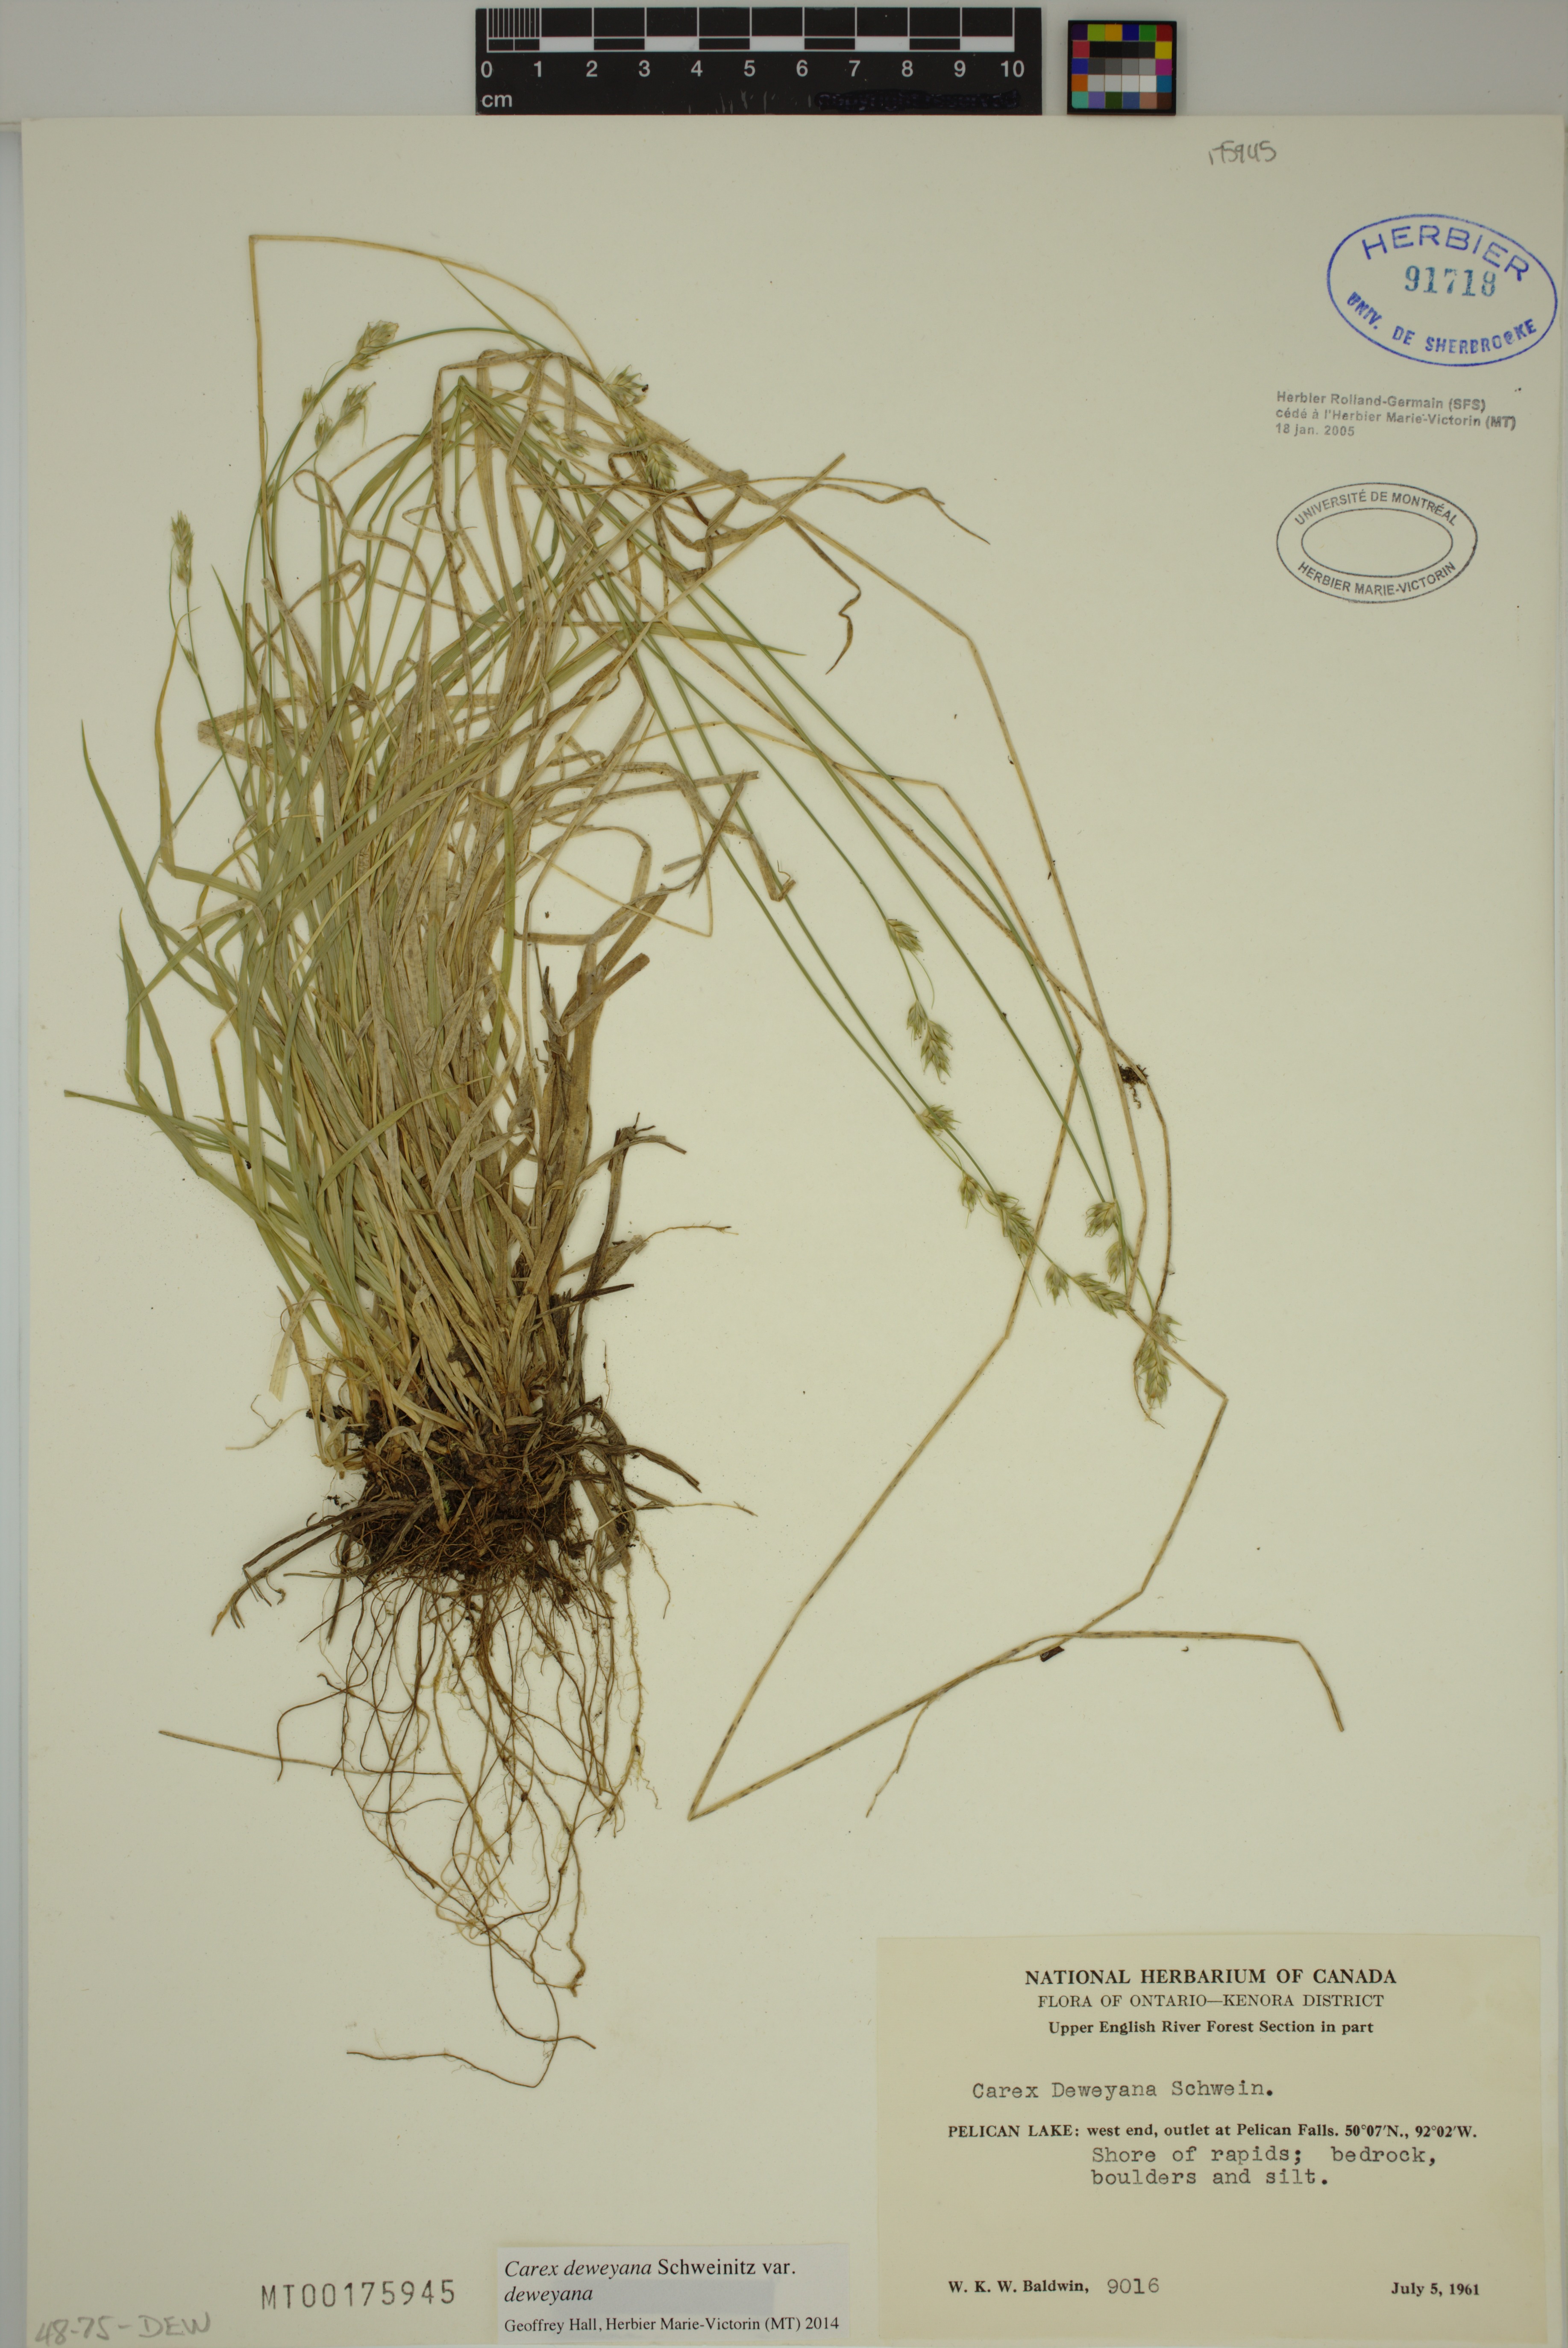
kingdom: Plantae
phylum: Tracheophyta
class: Liliopsida
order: Poales
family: Cyperaceae
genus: Carex
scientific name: Carex deweyana
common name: Dewey's sedge
